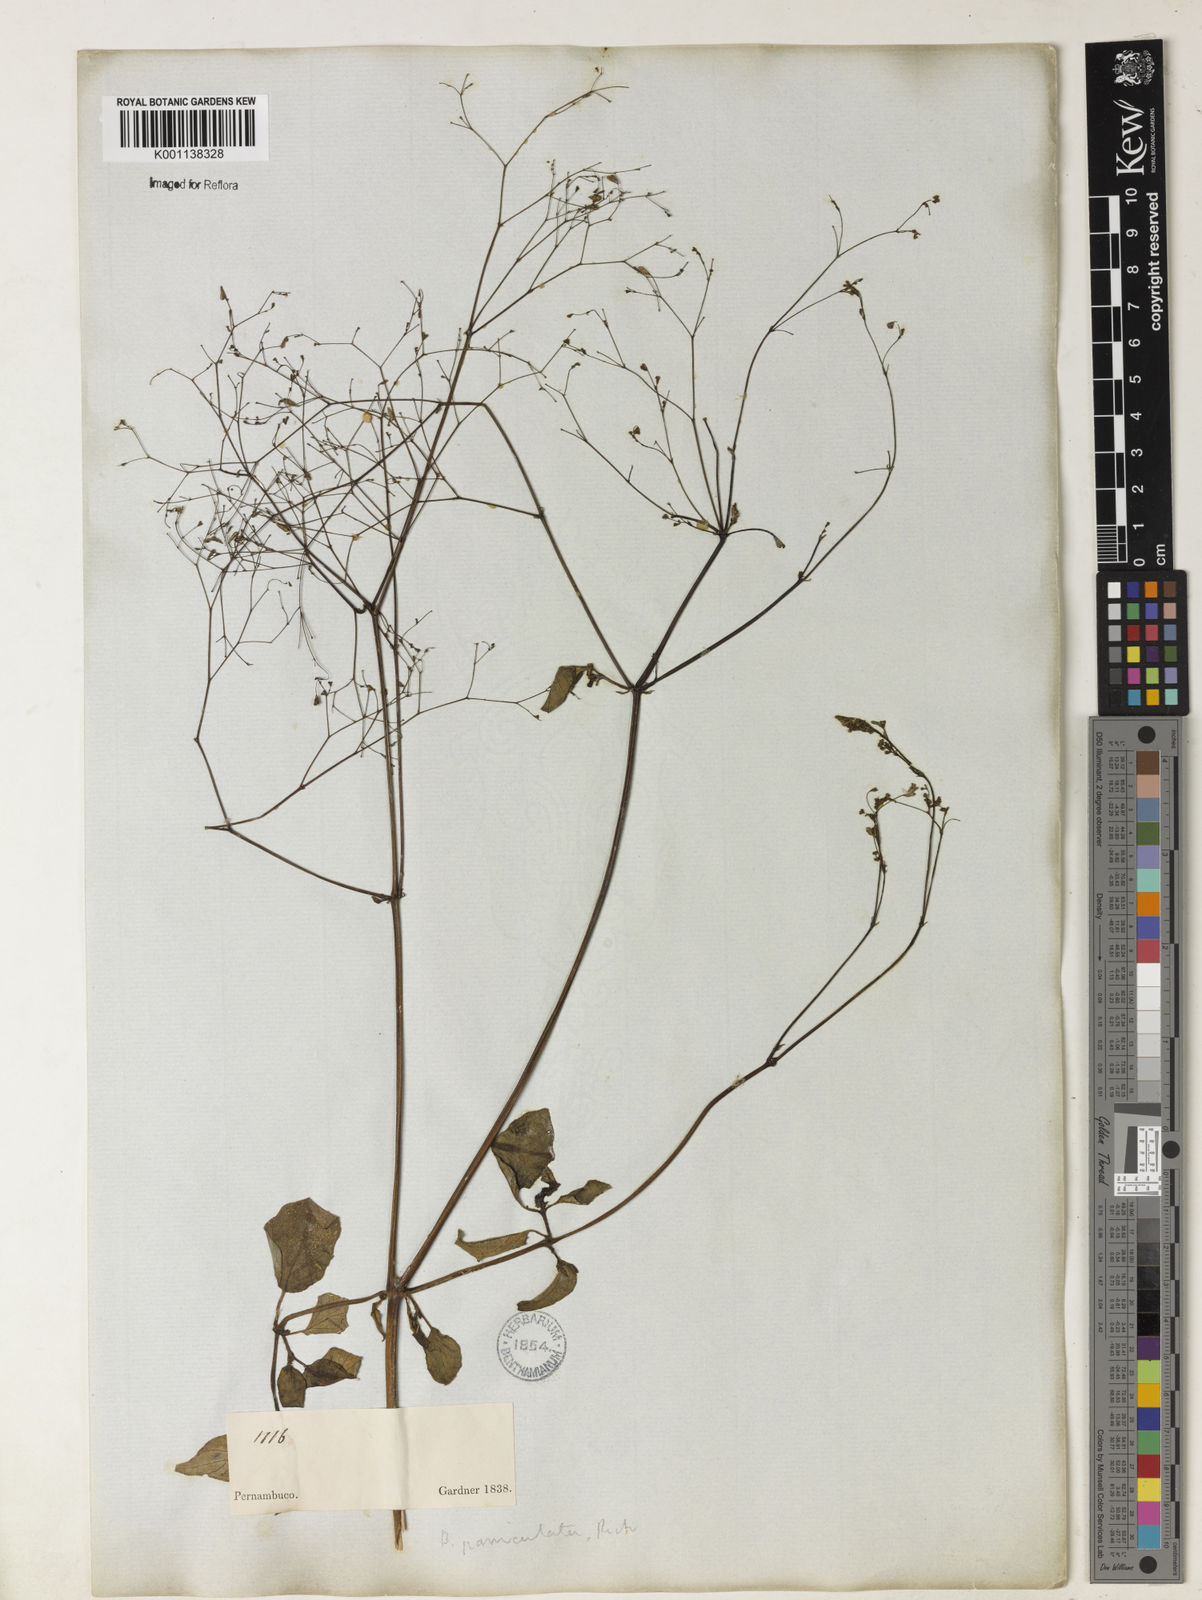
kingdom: Plantae
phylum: Tracheophyta
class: Magnoliopsida
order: Caryophyllales
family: Nyctaginaceae
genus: Boerhavia
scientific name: Boerhavia diffusa
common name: Red spiderling
